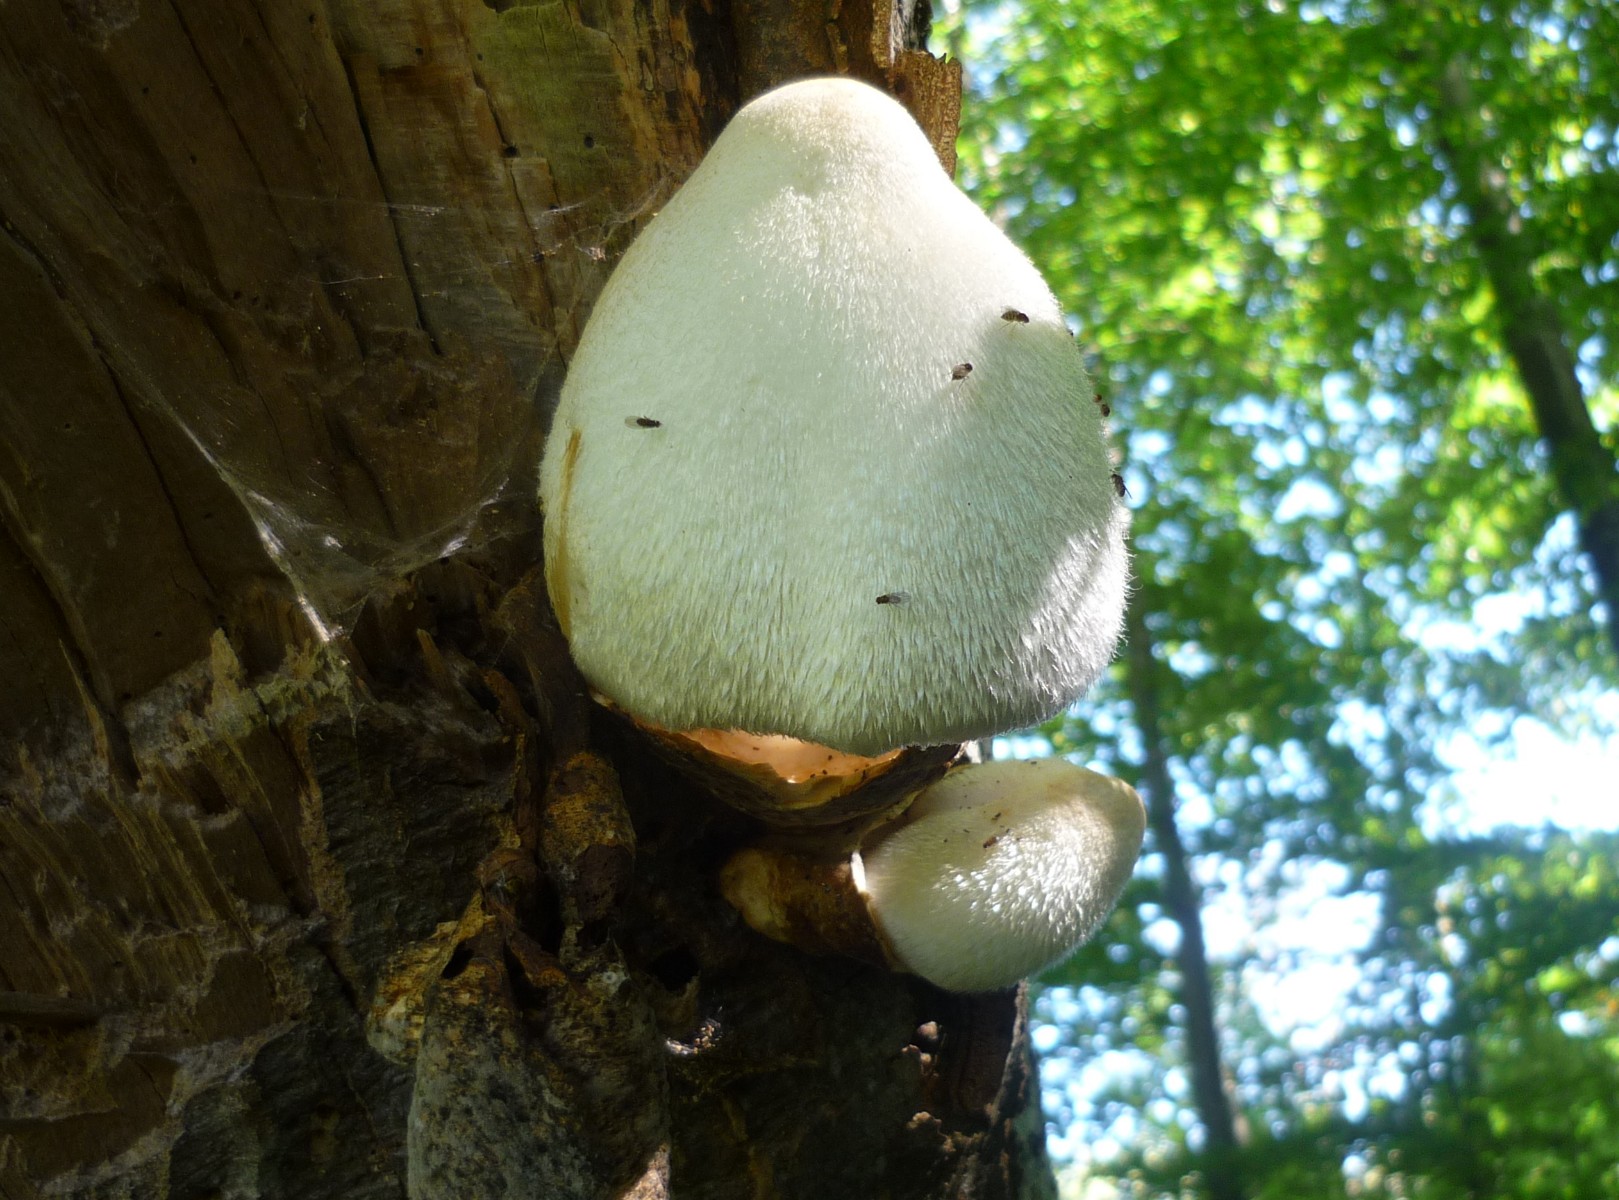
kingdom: Fungi
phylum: Basidiomycota
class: Agaricomycetes
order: Agaricales
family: Pluteaceae
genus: Volvariella
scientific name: Volvariella bombycina
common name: silkehåret posesvamp
